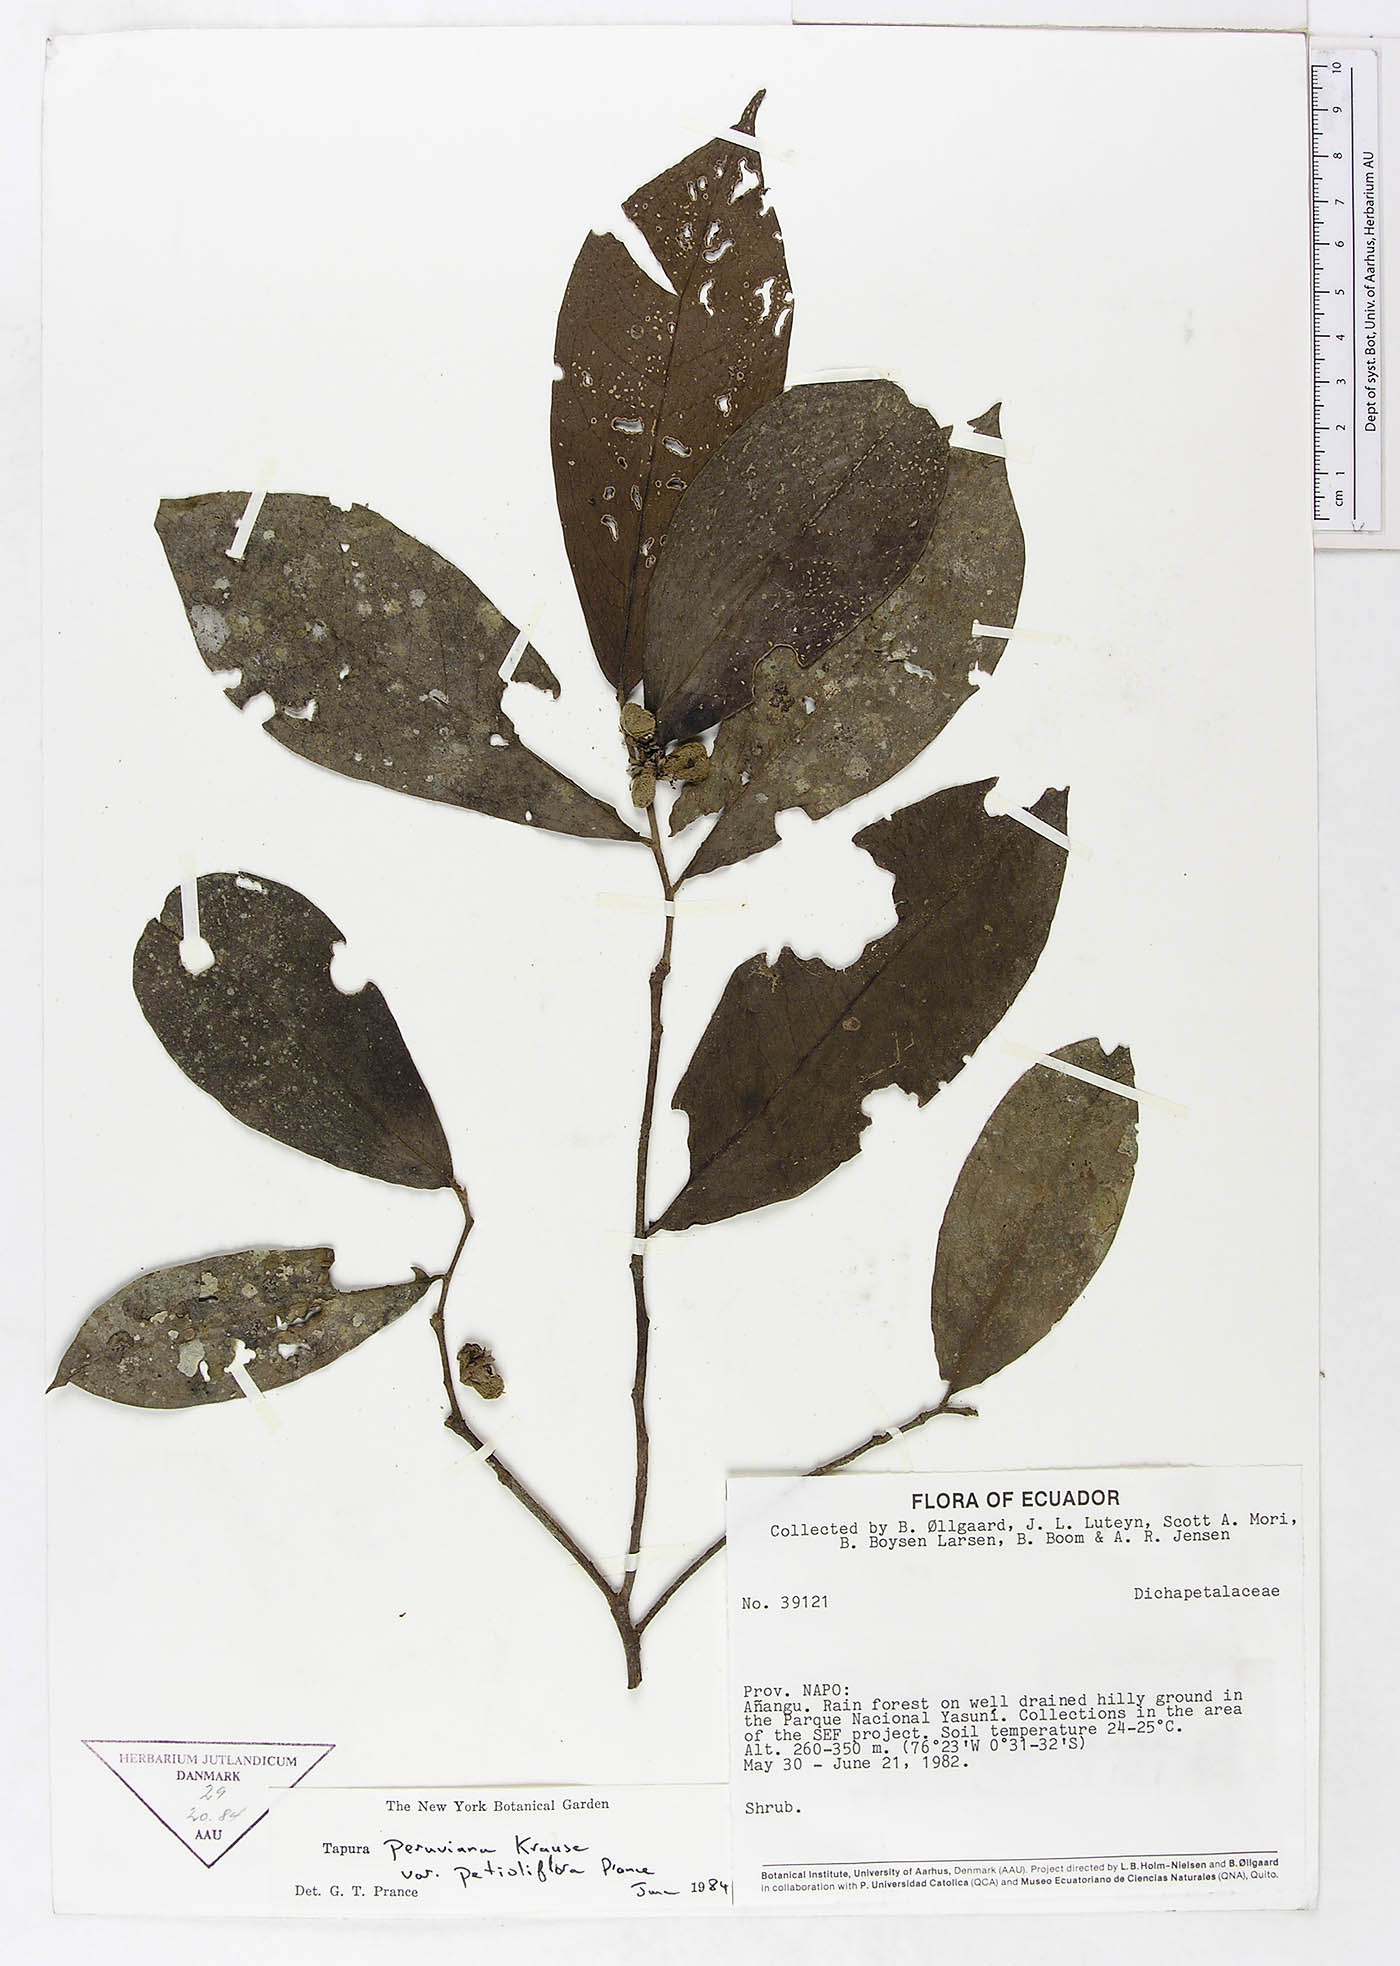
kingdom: Plantae
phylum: Tracheophyta
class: Magnoliopsida
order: Malpighiales
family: Dichapetalaceae
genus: Tapura
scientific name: Tapura peruviana
